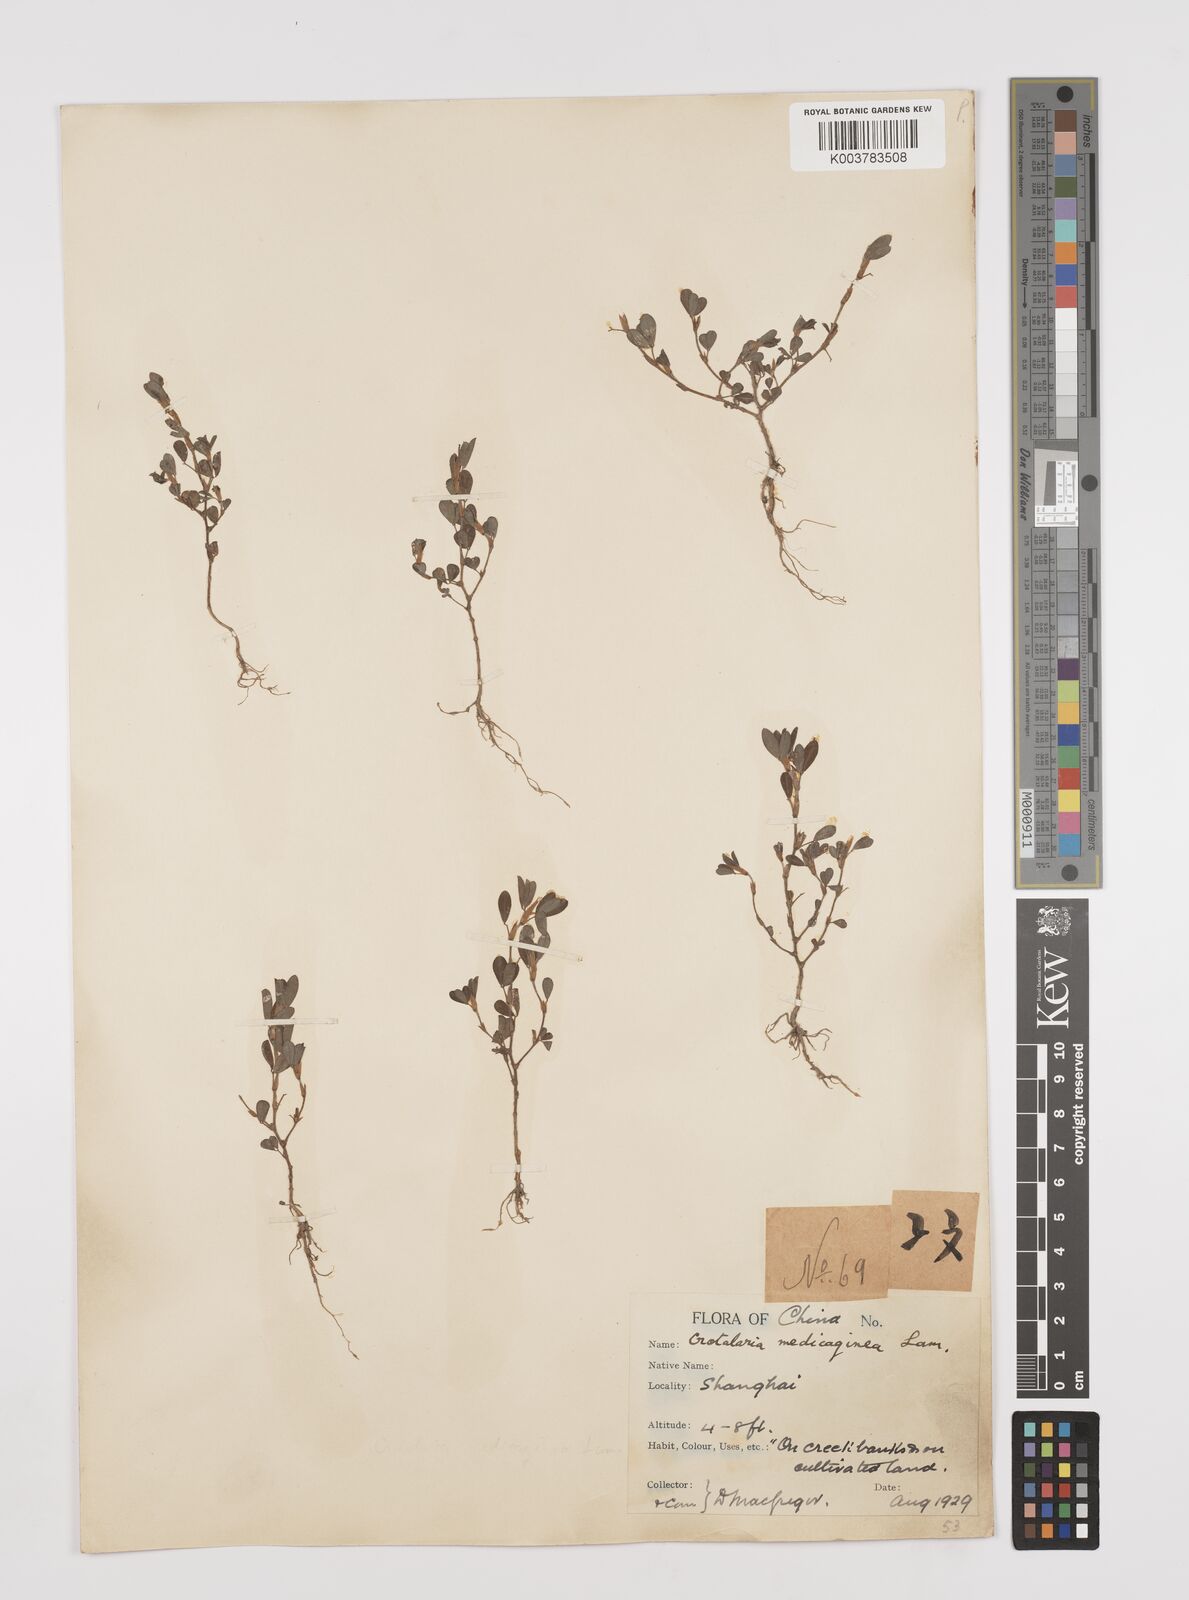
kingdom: Plantae
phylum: Tracheophyta
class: Magnoliopsida
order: Fabales
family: Fabaceae
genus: Crotalaria
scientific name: Crotalaria medicaginea
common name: Trefoil rattlepod
